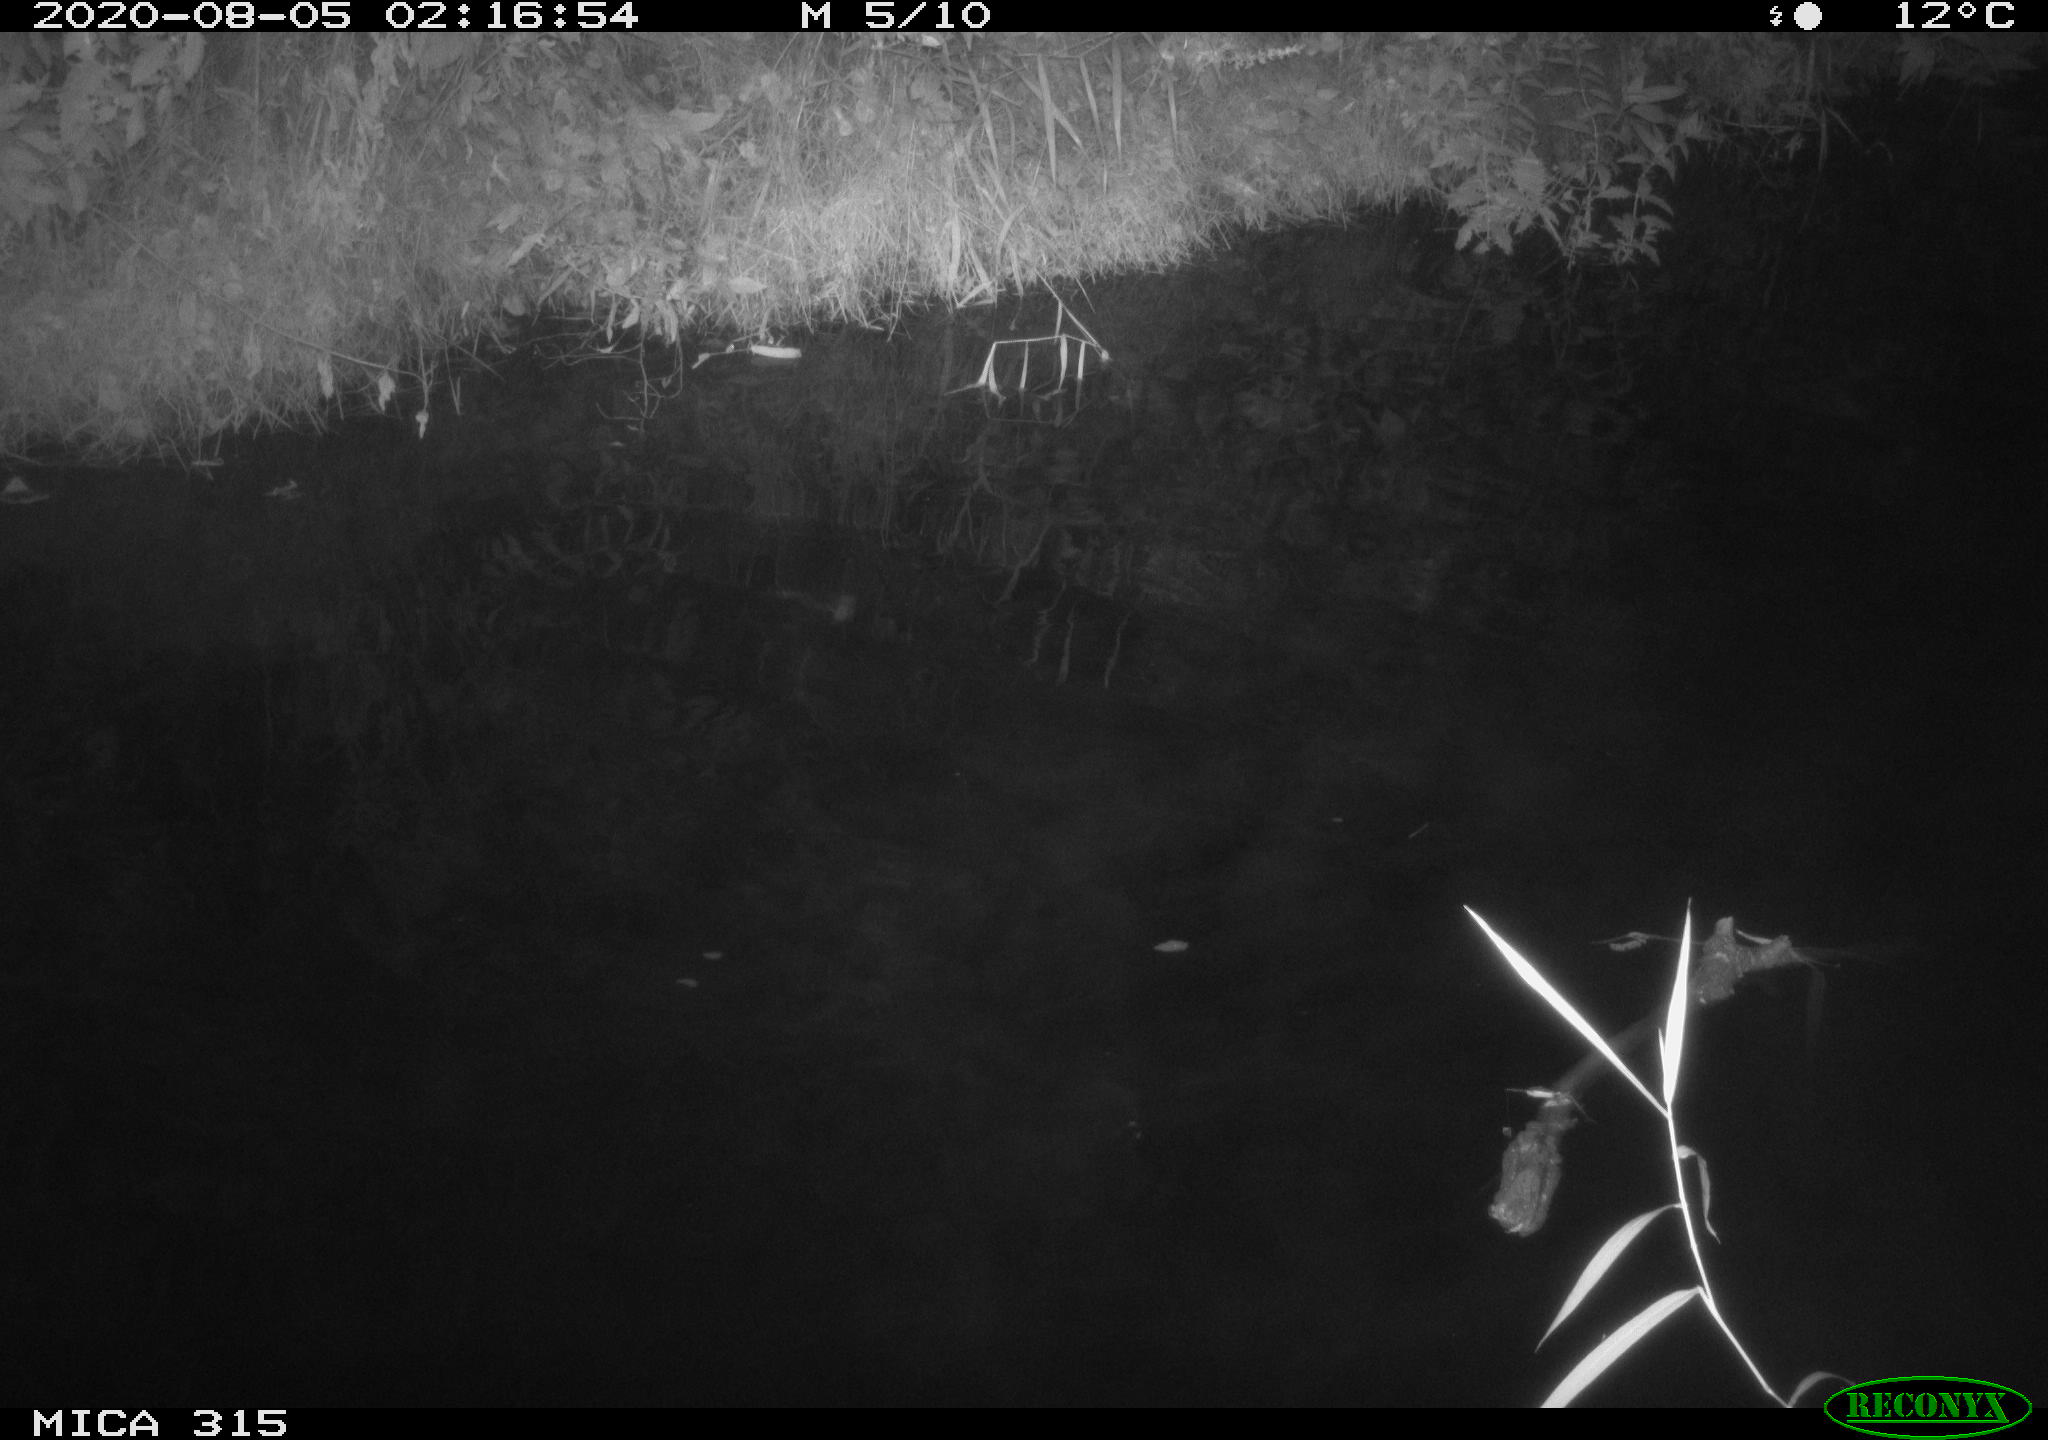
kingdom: Animalia
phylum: Chordata
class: Aves
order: Anseriformes
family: Anatidae
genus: Anas
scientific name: Anas platyrhynchos
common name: Mallard
